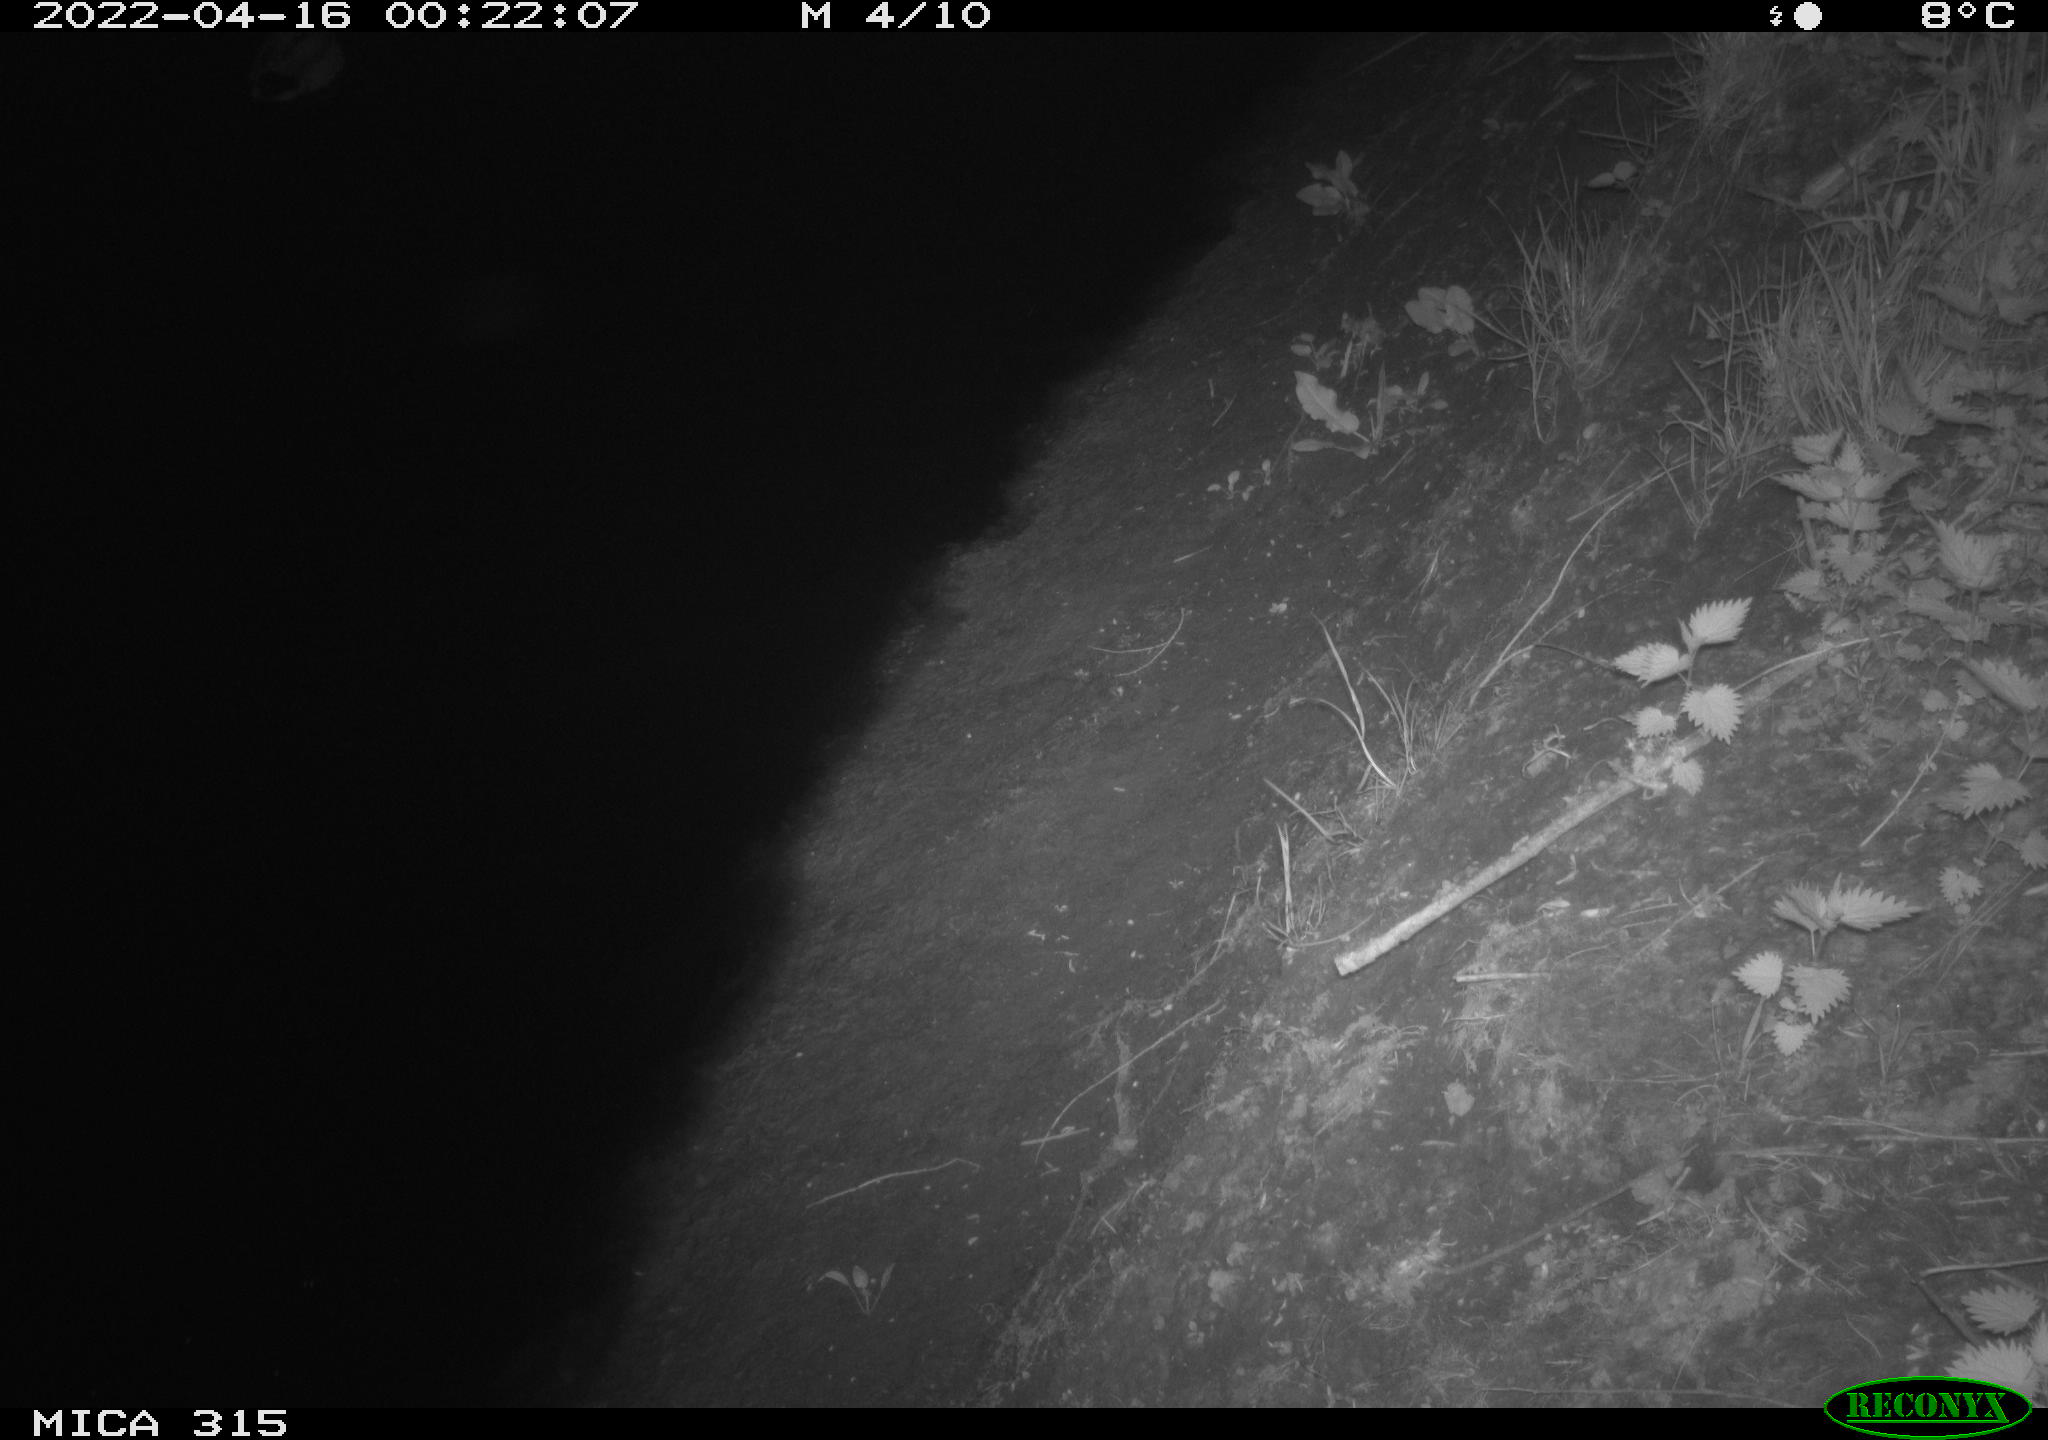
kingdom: Animalia
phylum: Chordata
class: Aves
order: Anseriformes
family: Anatidae
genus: Anas
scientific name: Anas platyrhynchos
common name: Mallard
